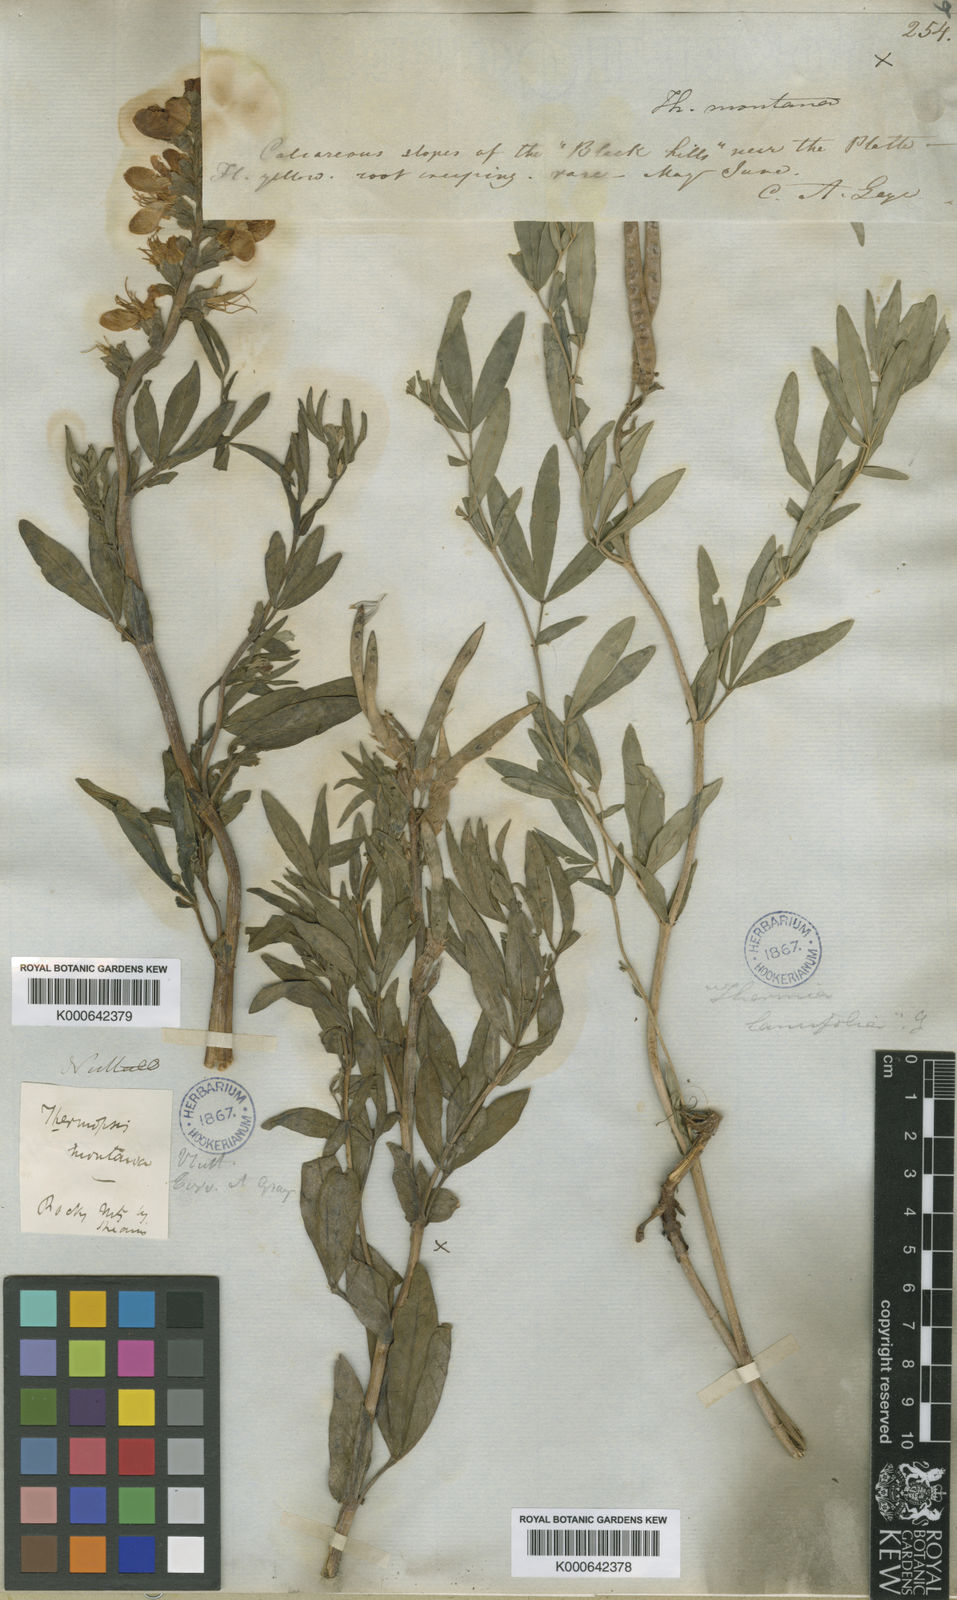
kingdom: Plantae
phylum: Tracheophyta
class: Magnoliopsida
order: Fabales
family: Fabaceae
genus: Thermopsis
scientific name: Thermopsis montana
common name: False lupin
